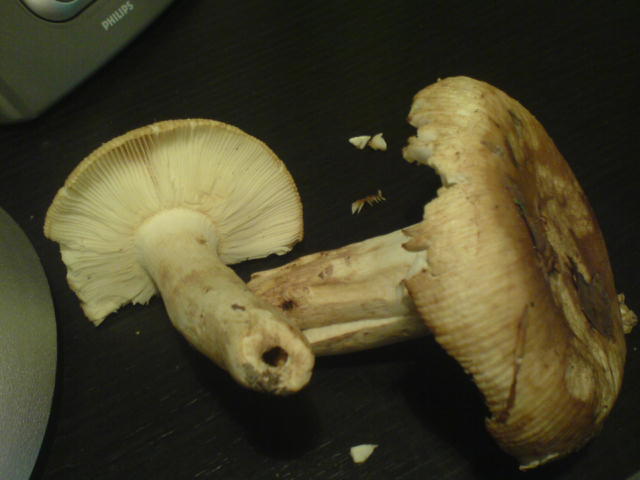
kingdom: Fungi
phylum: Basidiomycota
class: Agaricomycetes
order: Russulales
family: Russulaceae
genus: Russula
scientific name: Russula grata
